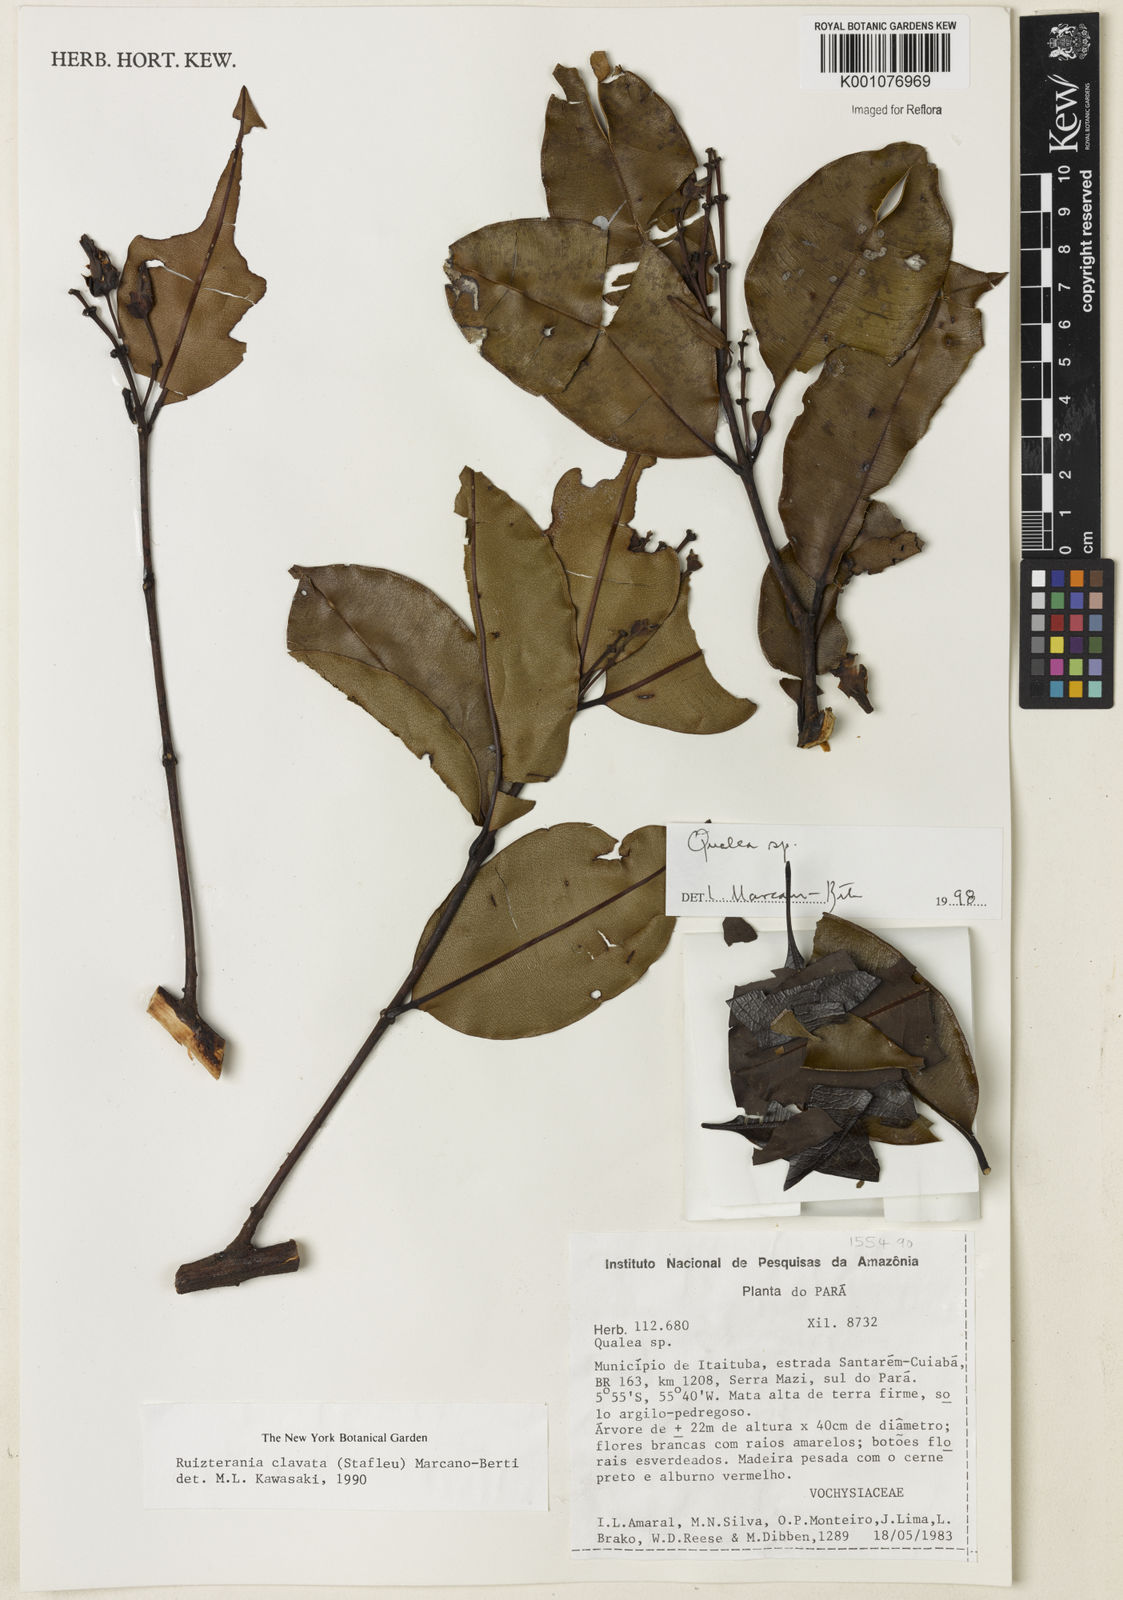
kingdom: Plantae
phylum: Tracheophyta
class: Magnoliopsida
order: Myrtales
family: Vochysiaceae
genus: Qualea
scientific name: Qualea
